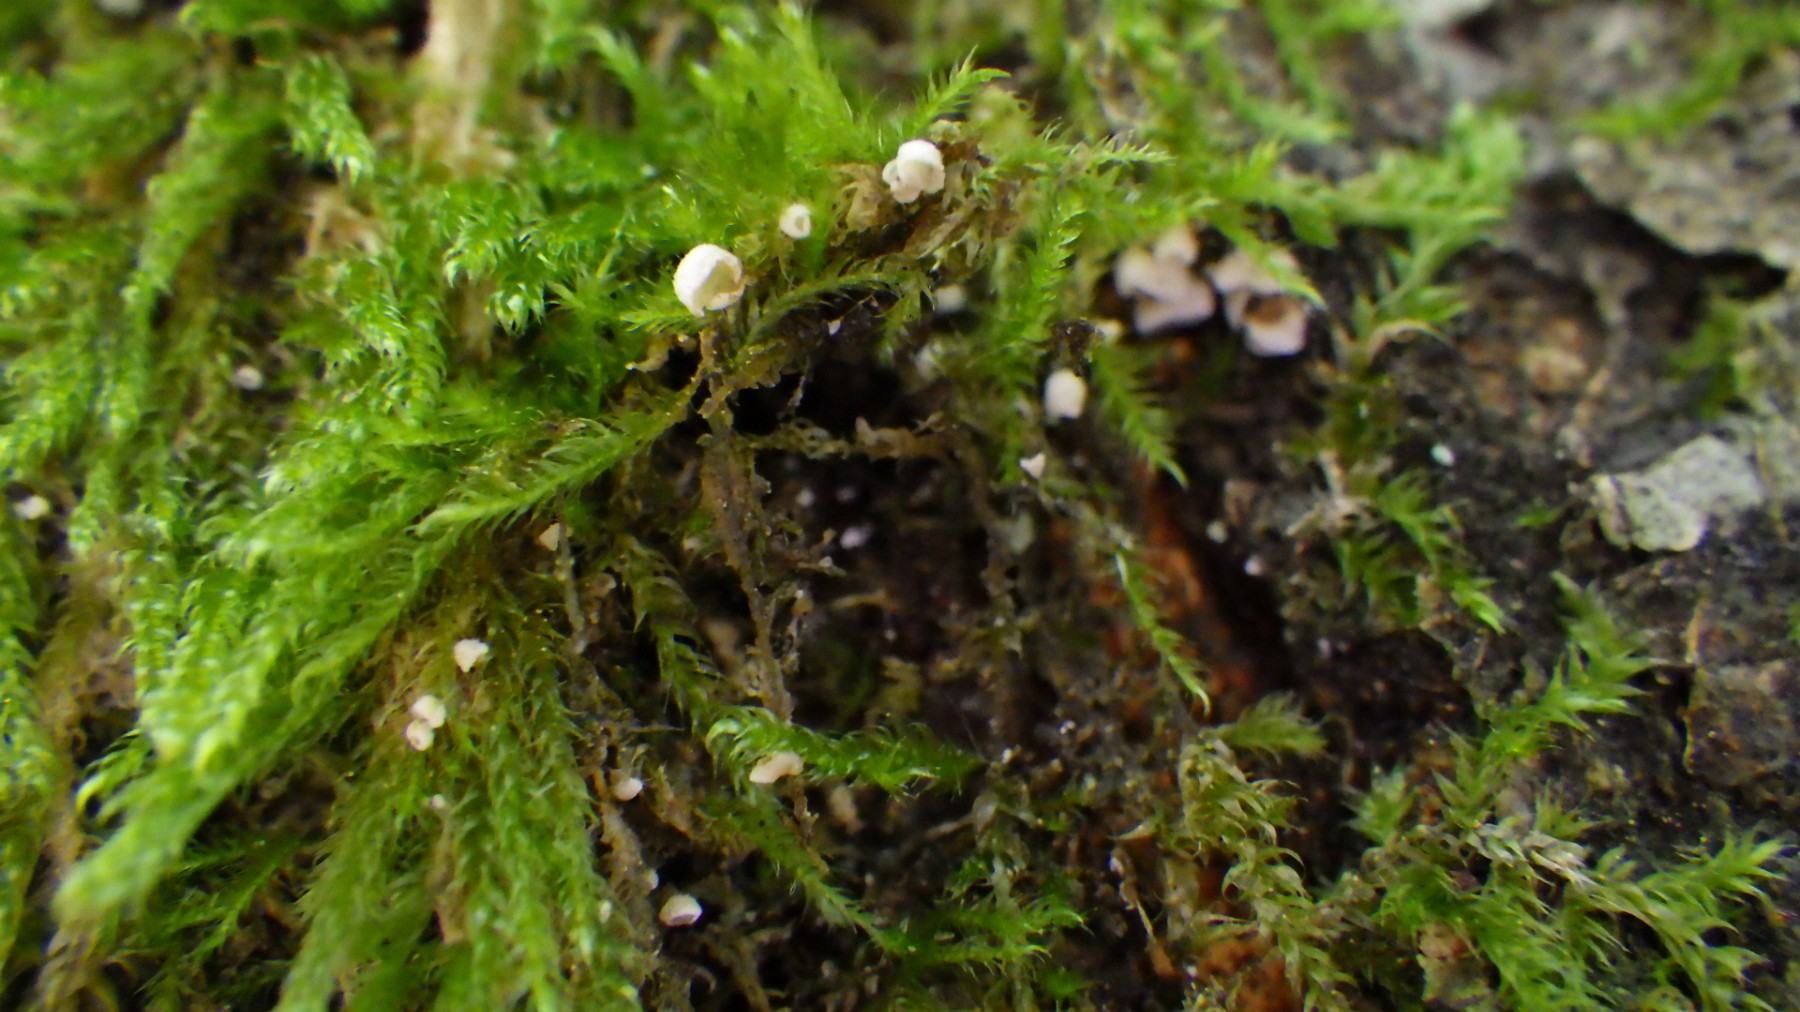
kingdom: Fungi
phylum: Basidiomycota
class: Agaricomycetes
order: Agaricales
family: Chromocyphellaceae
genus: Chromocyphella
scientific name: Chromocyphella muscicola
